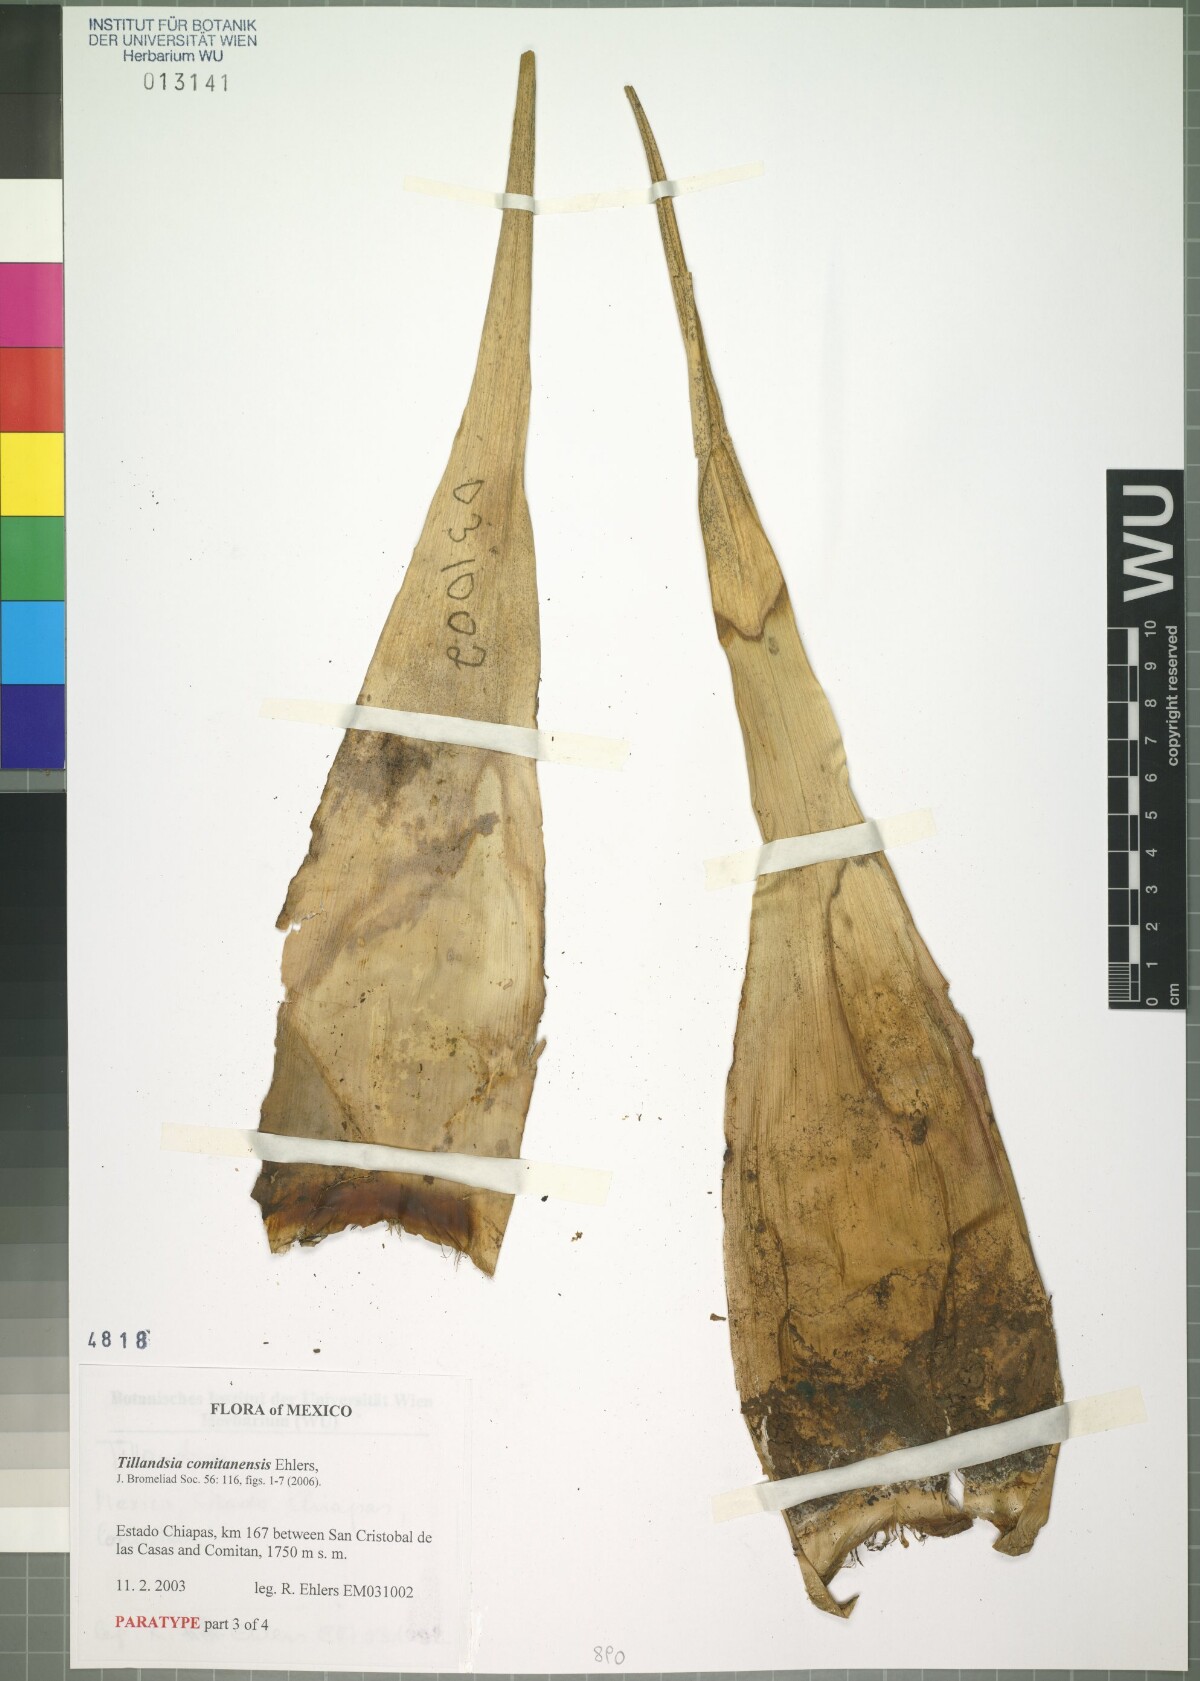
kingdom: Plantae
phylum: Tracheophyta
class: Liliopsida
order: Poales
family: Bromeliaceae
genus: Tillandsia
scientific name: Tillandsia comitanensis
